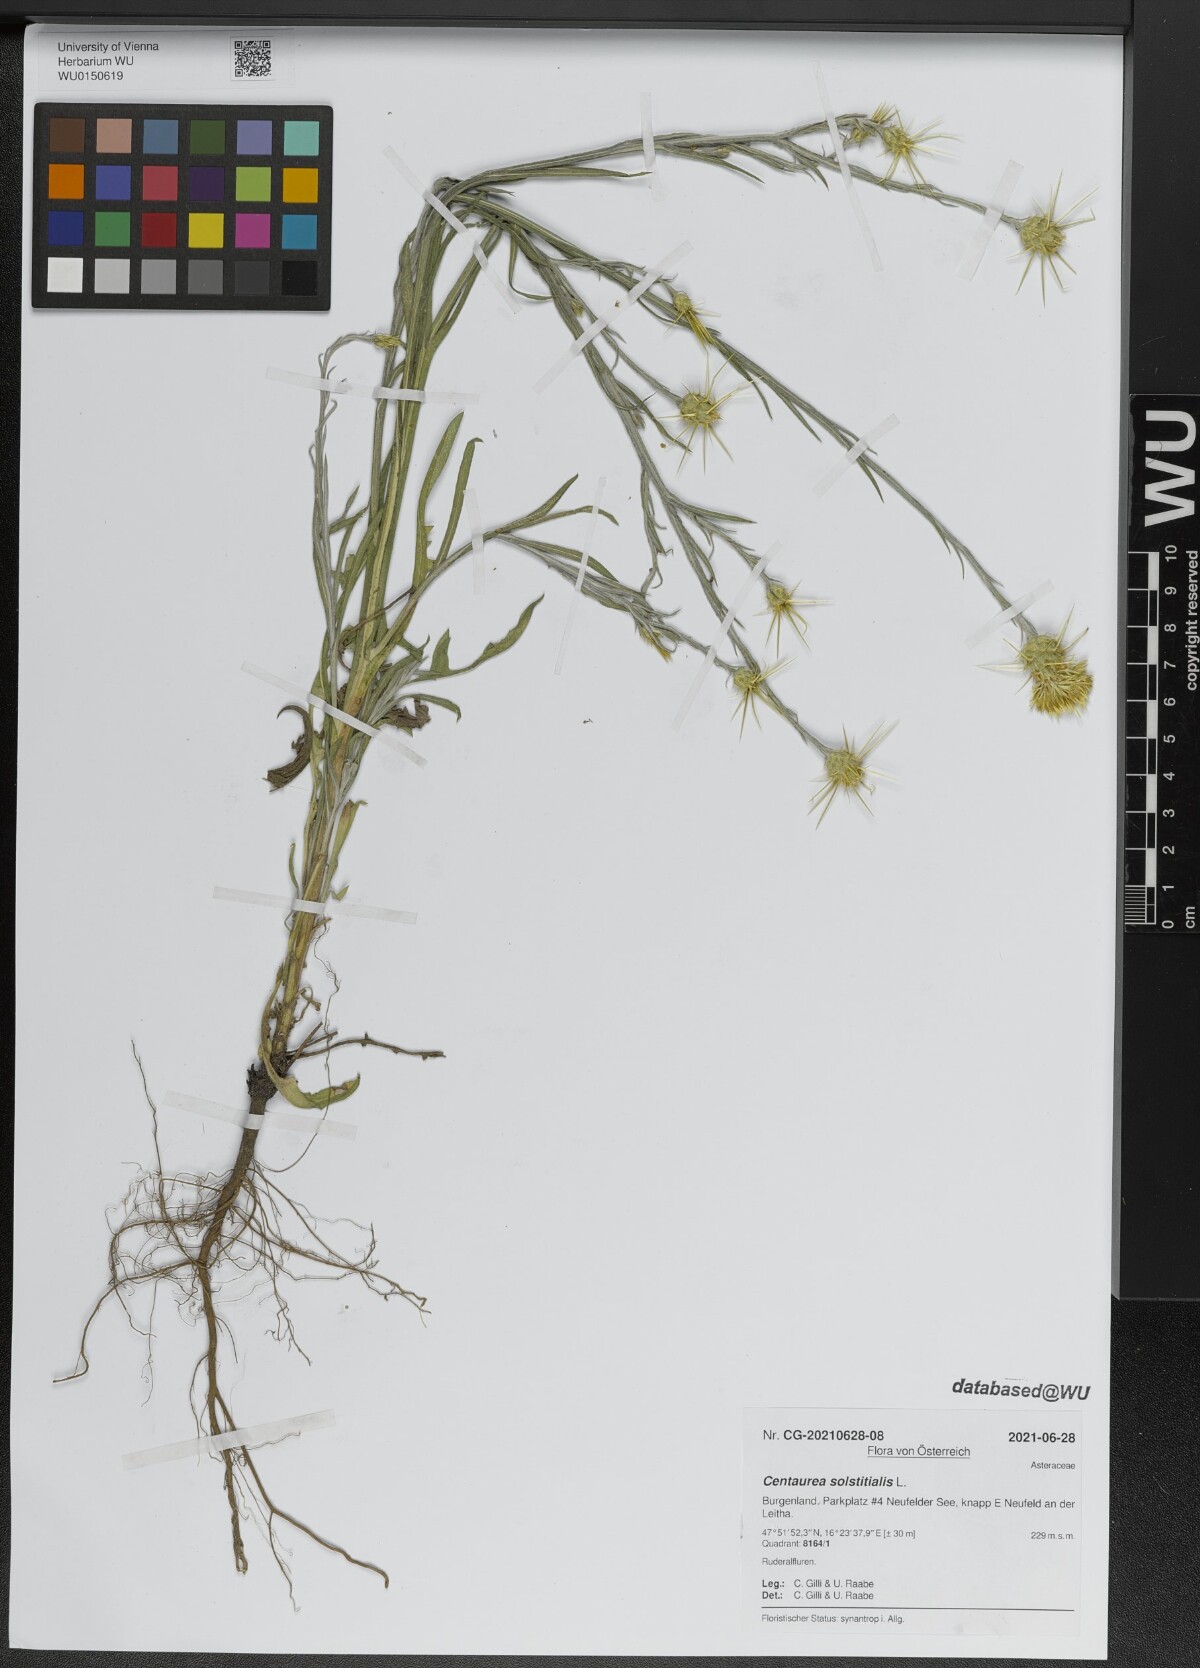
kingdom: Plantae
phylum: Tracheophyta
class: Magnoliopsida
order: Asterales
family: Asteraceae
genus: Centaurea
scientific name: Centaurea solstitialis
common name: Yellow star-thistle
